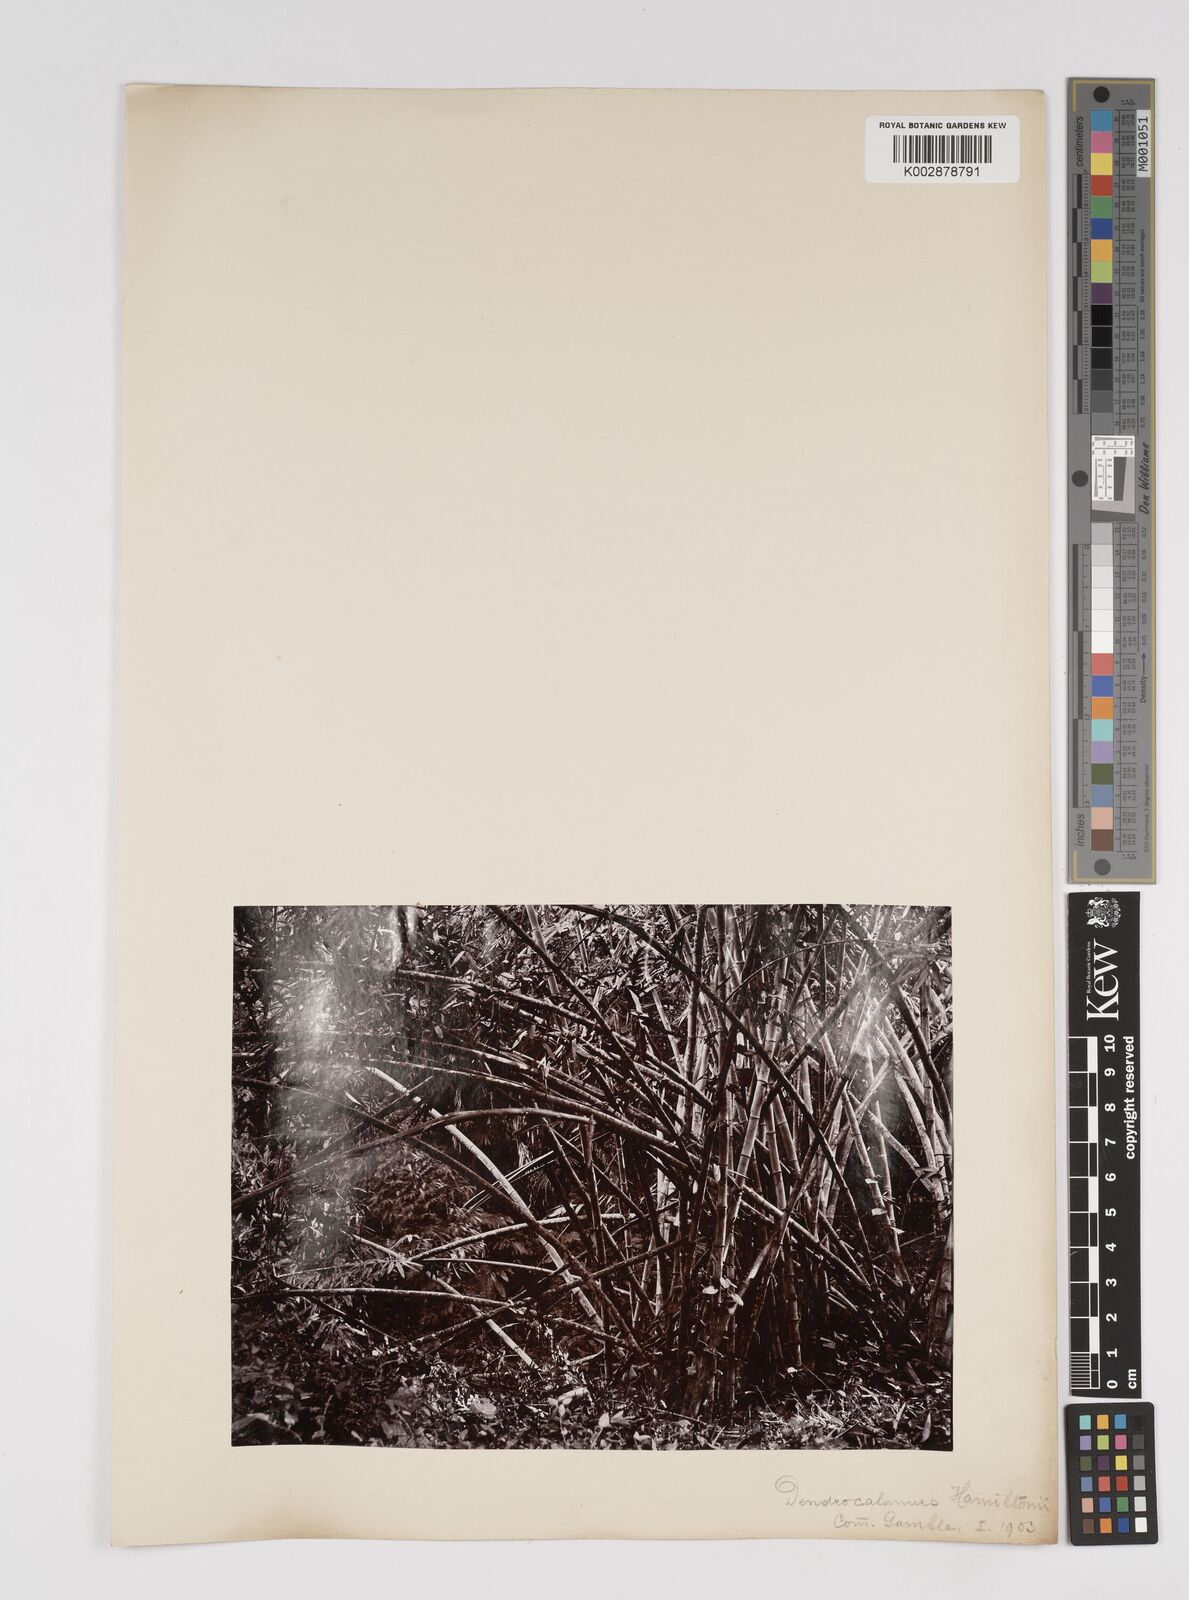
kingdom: Plantae
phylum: Tracheophyta
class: Liliopsida
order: Poales
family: Poaceae
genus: Dendrocalamus
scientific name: Dendrocalamus hamiltonii
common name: Tama bamboo
